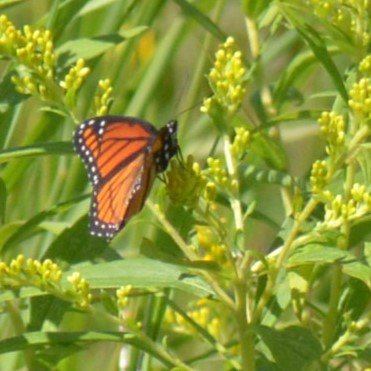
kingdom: Animalia
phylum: Arthropoda
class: Insecta
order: Lepidoptera
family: Nymphalidae
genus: Limenitis
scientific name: Limenitis archippus
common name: Viceroy
